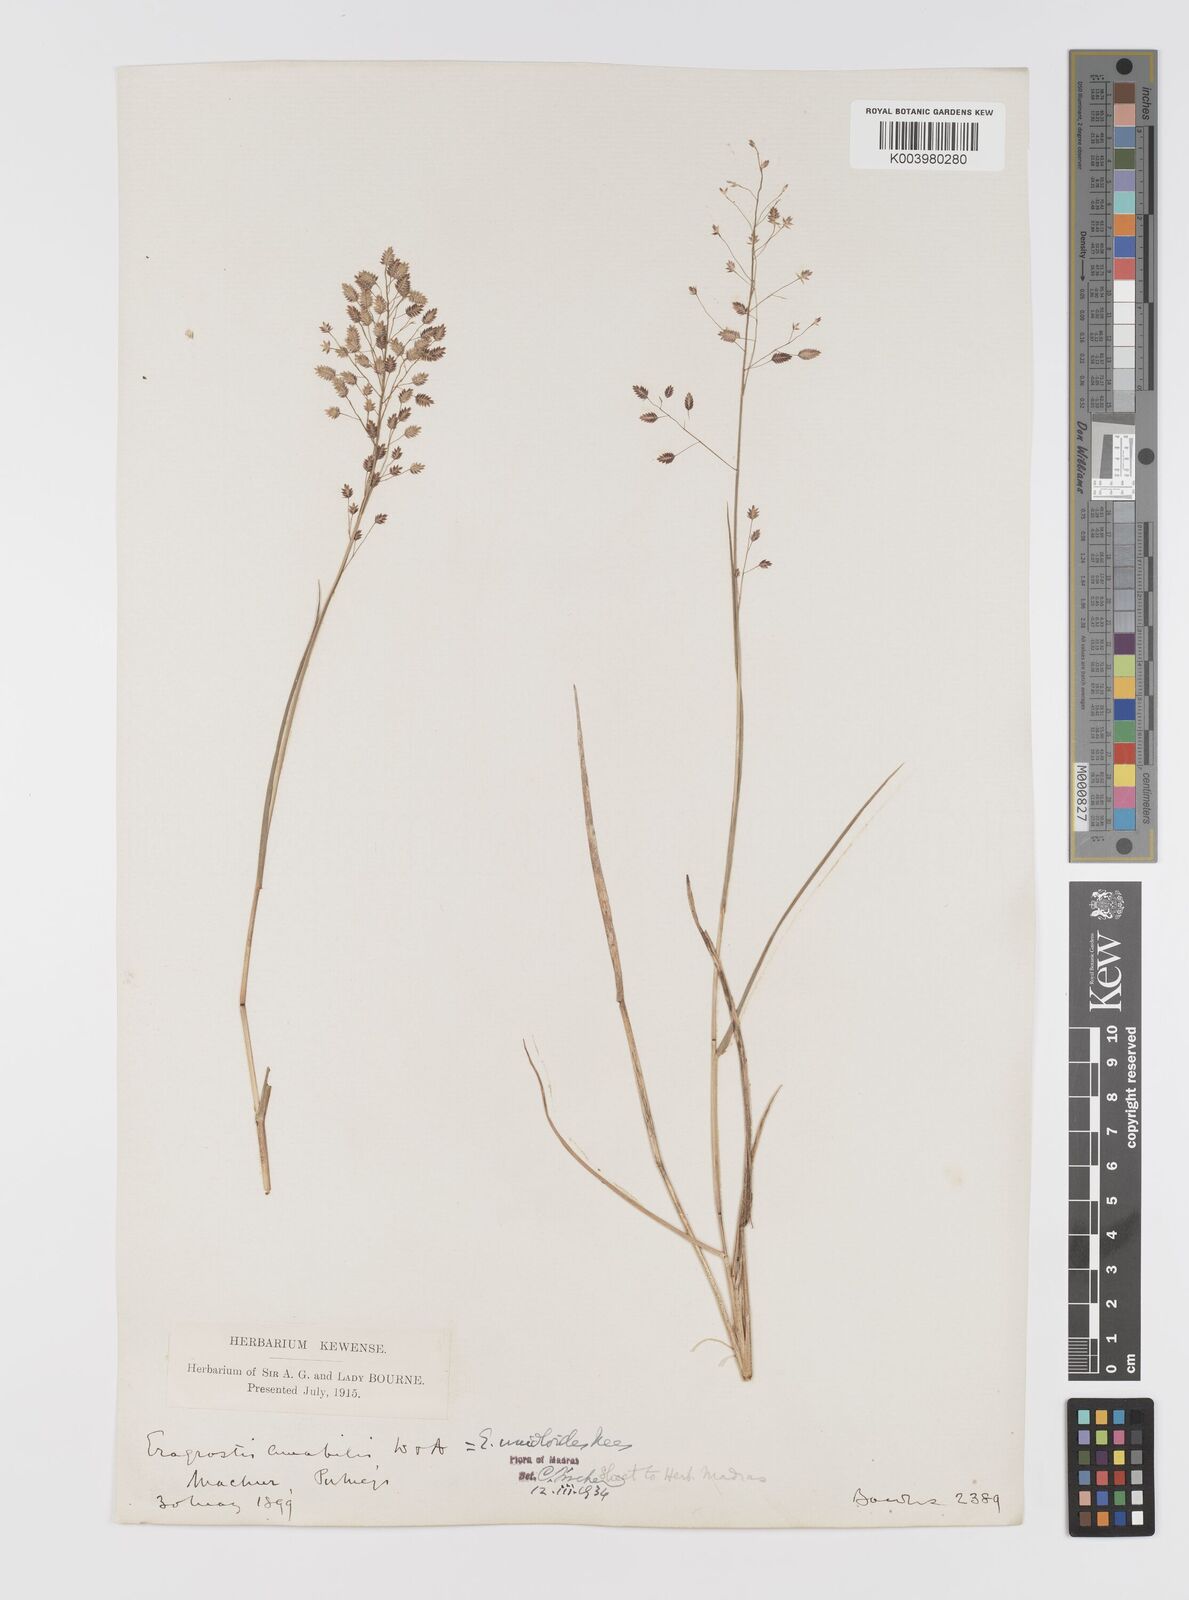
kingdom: Plantae
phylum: Tracheophyta
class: Liliopsida
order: Poales
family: Poaceae
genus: Eragrostis
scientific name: Eragrostis unioloides
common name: Chinese lovegrass
